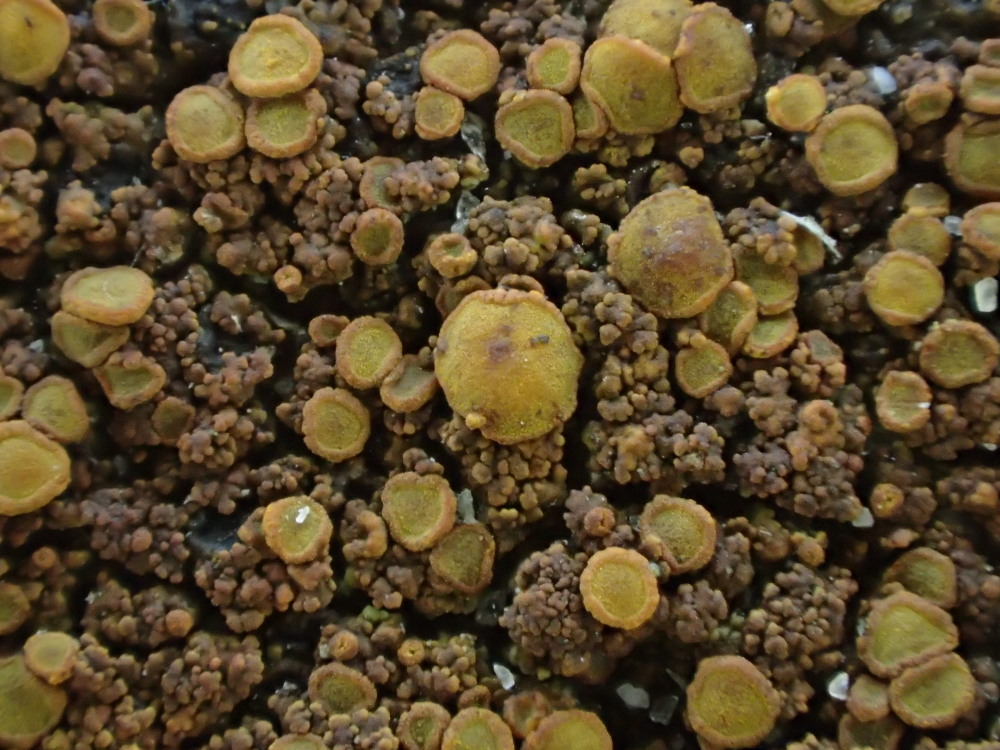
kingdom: Fungi
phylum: Ascomycota
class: Candelariomycetes
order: Candelariales
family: Candelariaceae
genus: Candelariella
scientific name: Candelariella vitellina
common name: almindelig æggeblommelav
